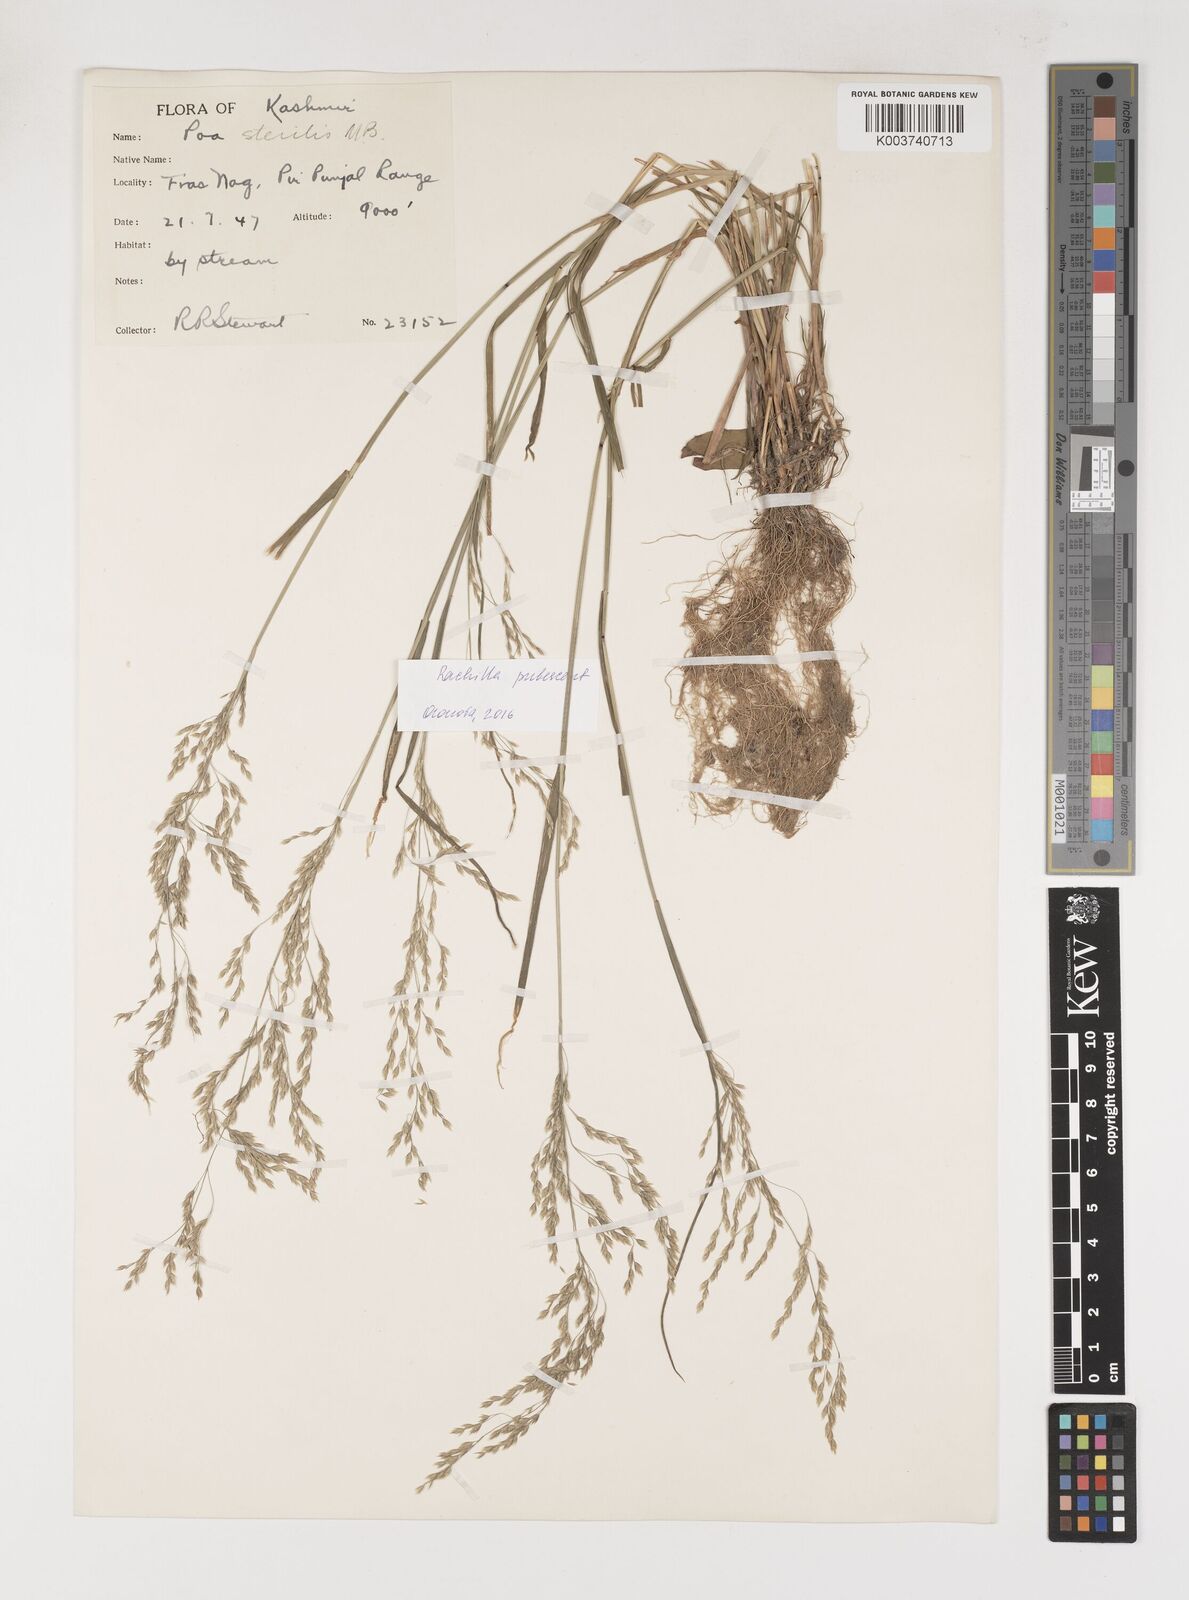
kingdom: Plantae
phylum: Tracheophyta
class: Liliopsida
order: Poales
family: Poaceae
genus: Poa
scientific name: Poa palustris
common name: Swamp meadow-grass
